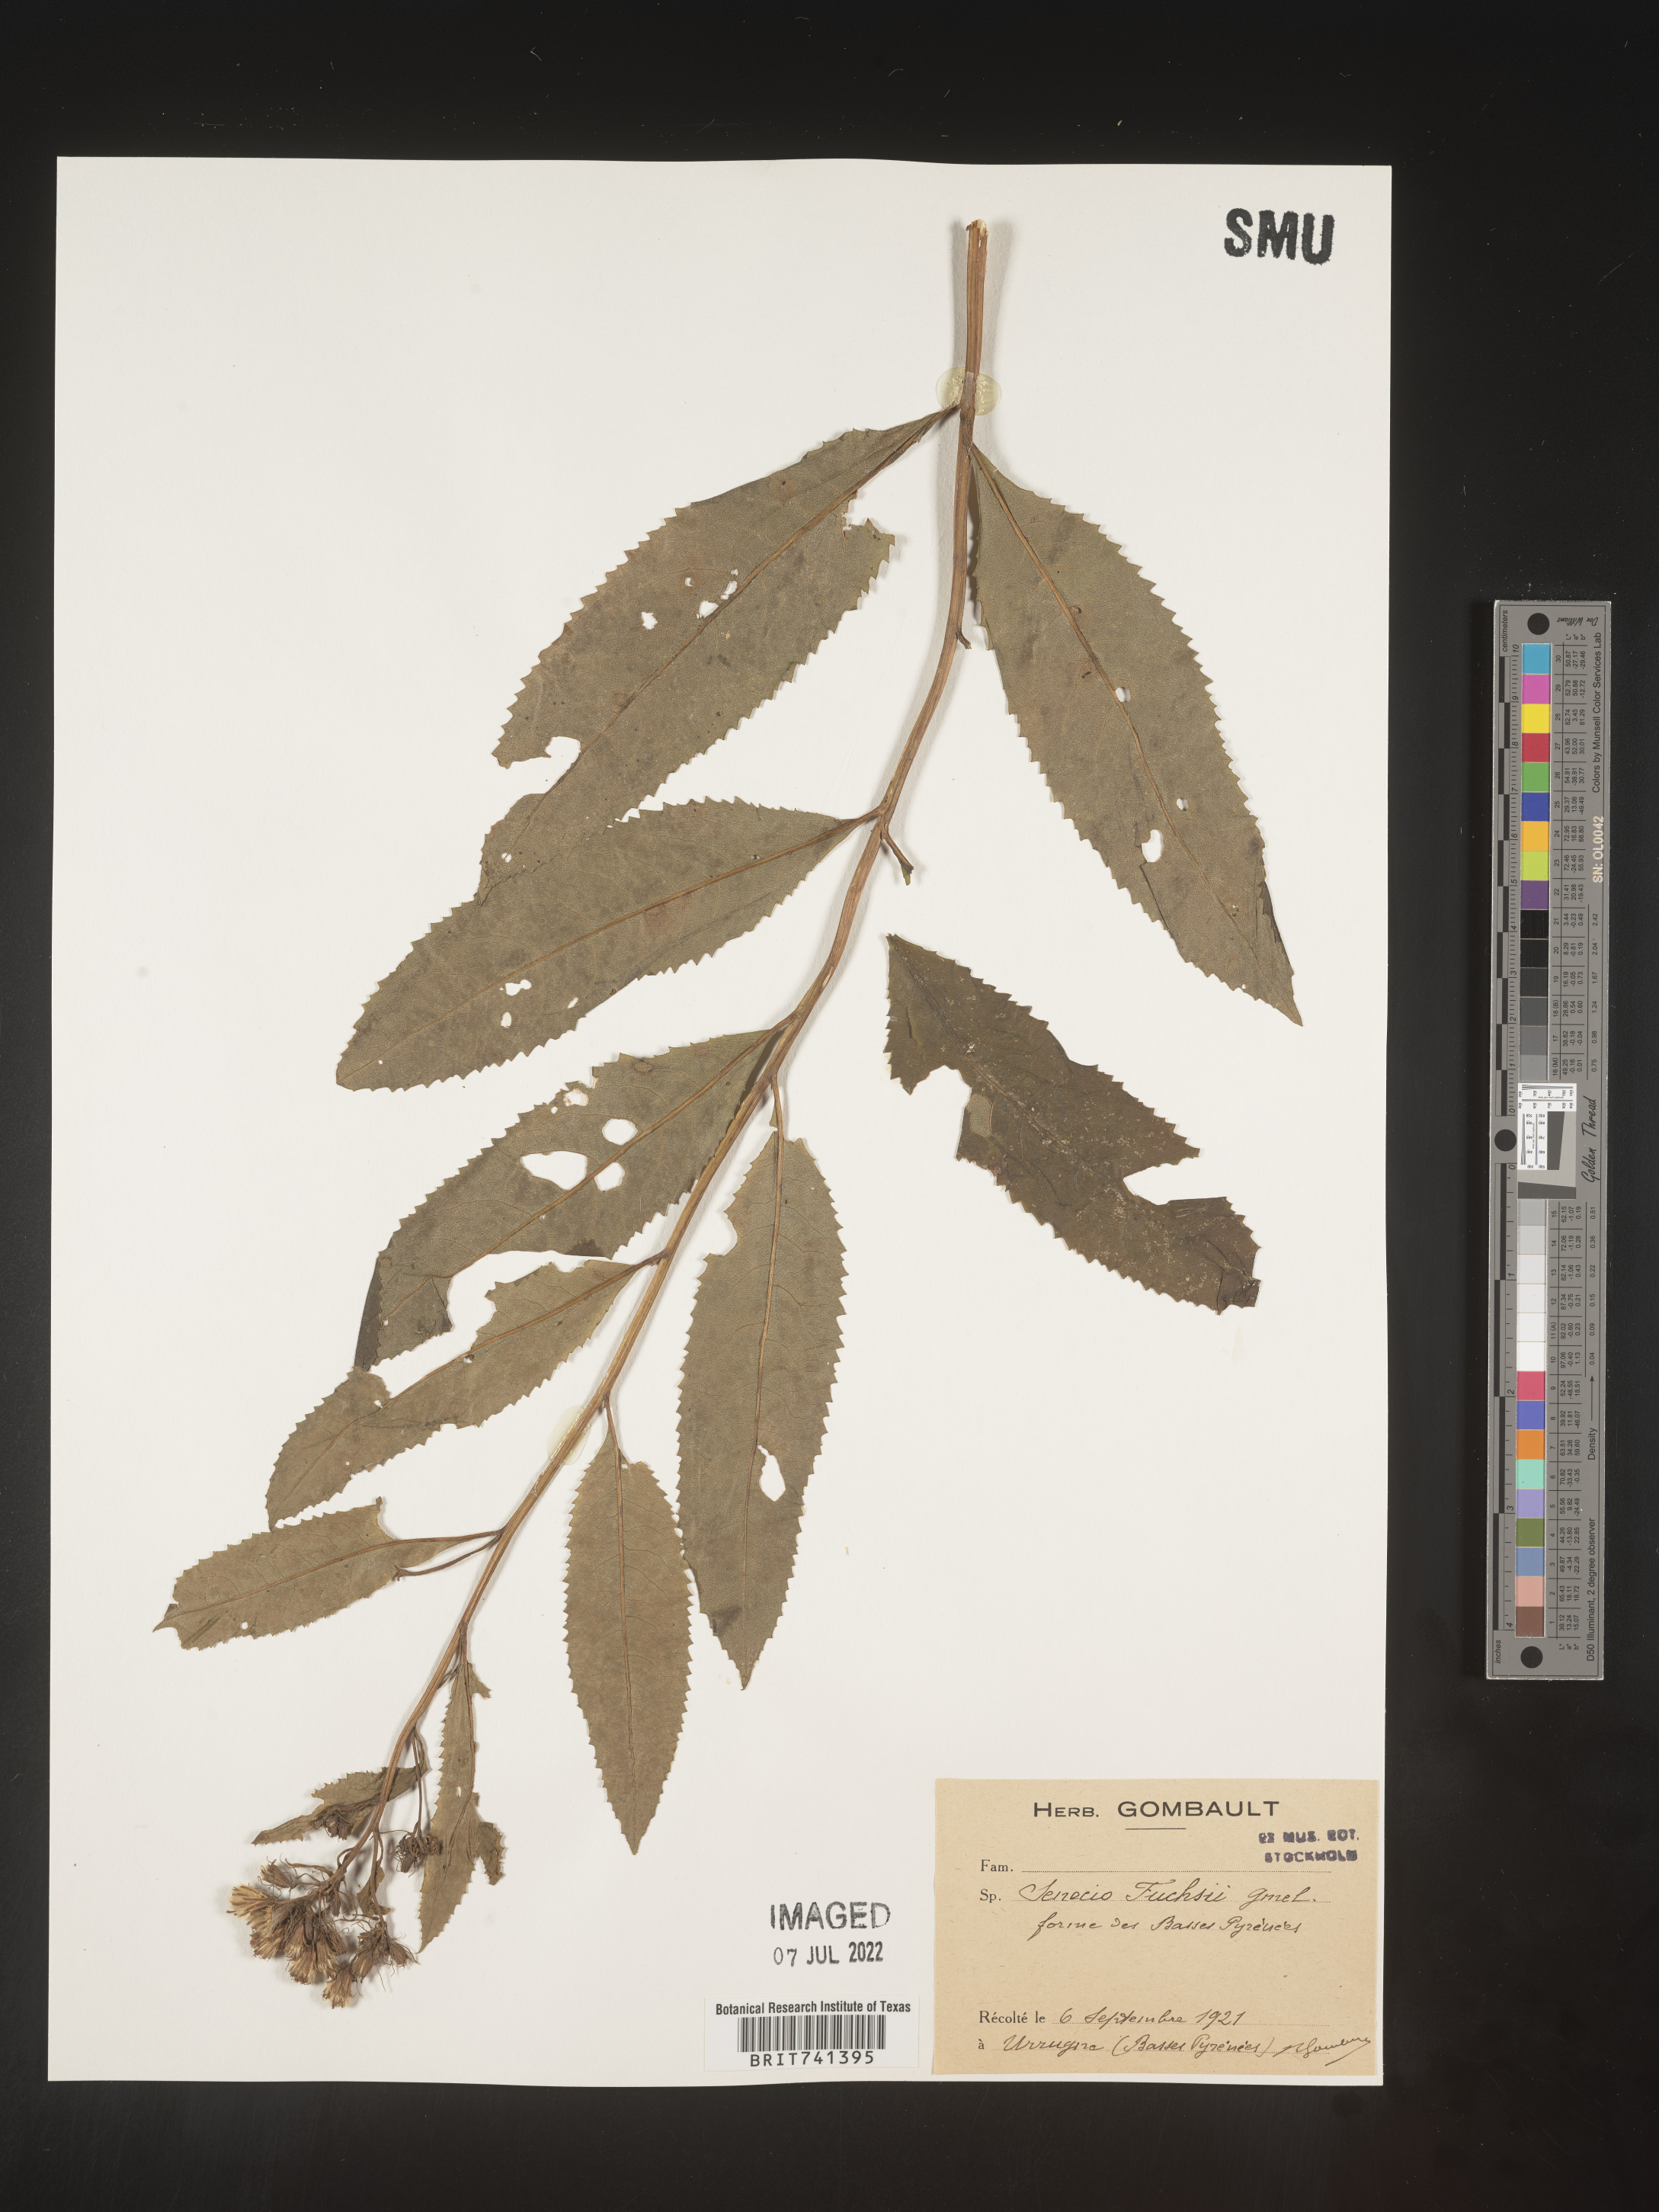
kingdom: Plantae
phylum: Tracheophyta
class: Magnoliopsida
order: Asterales
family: Asteraceae
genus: Senecio
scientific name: Senecio
